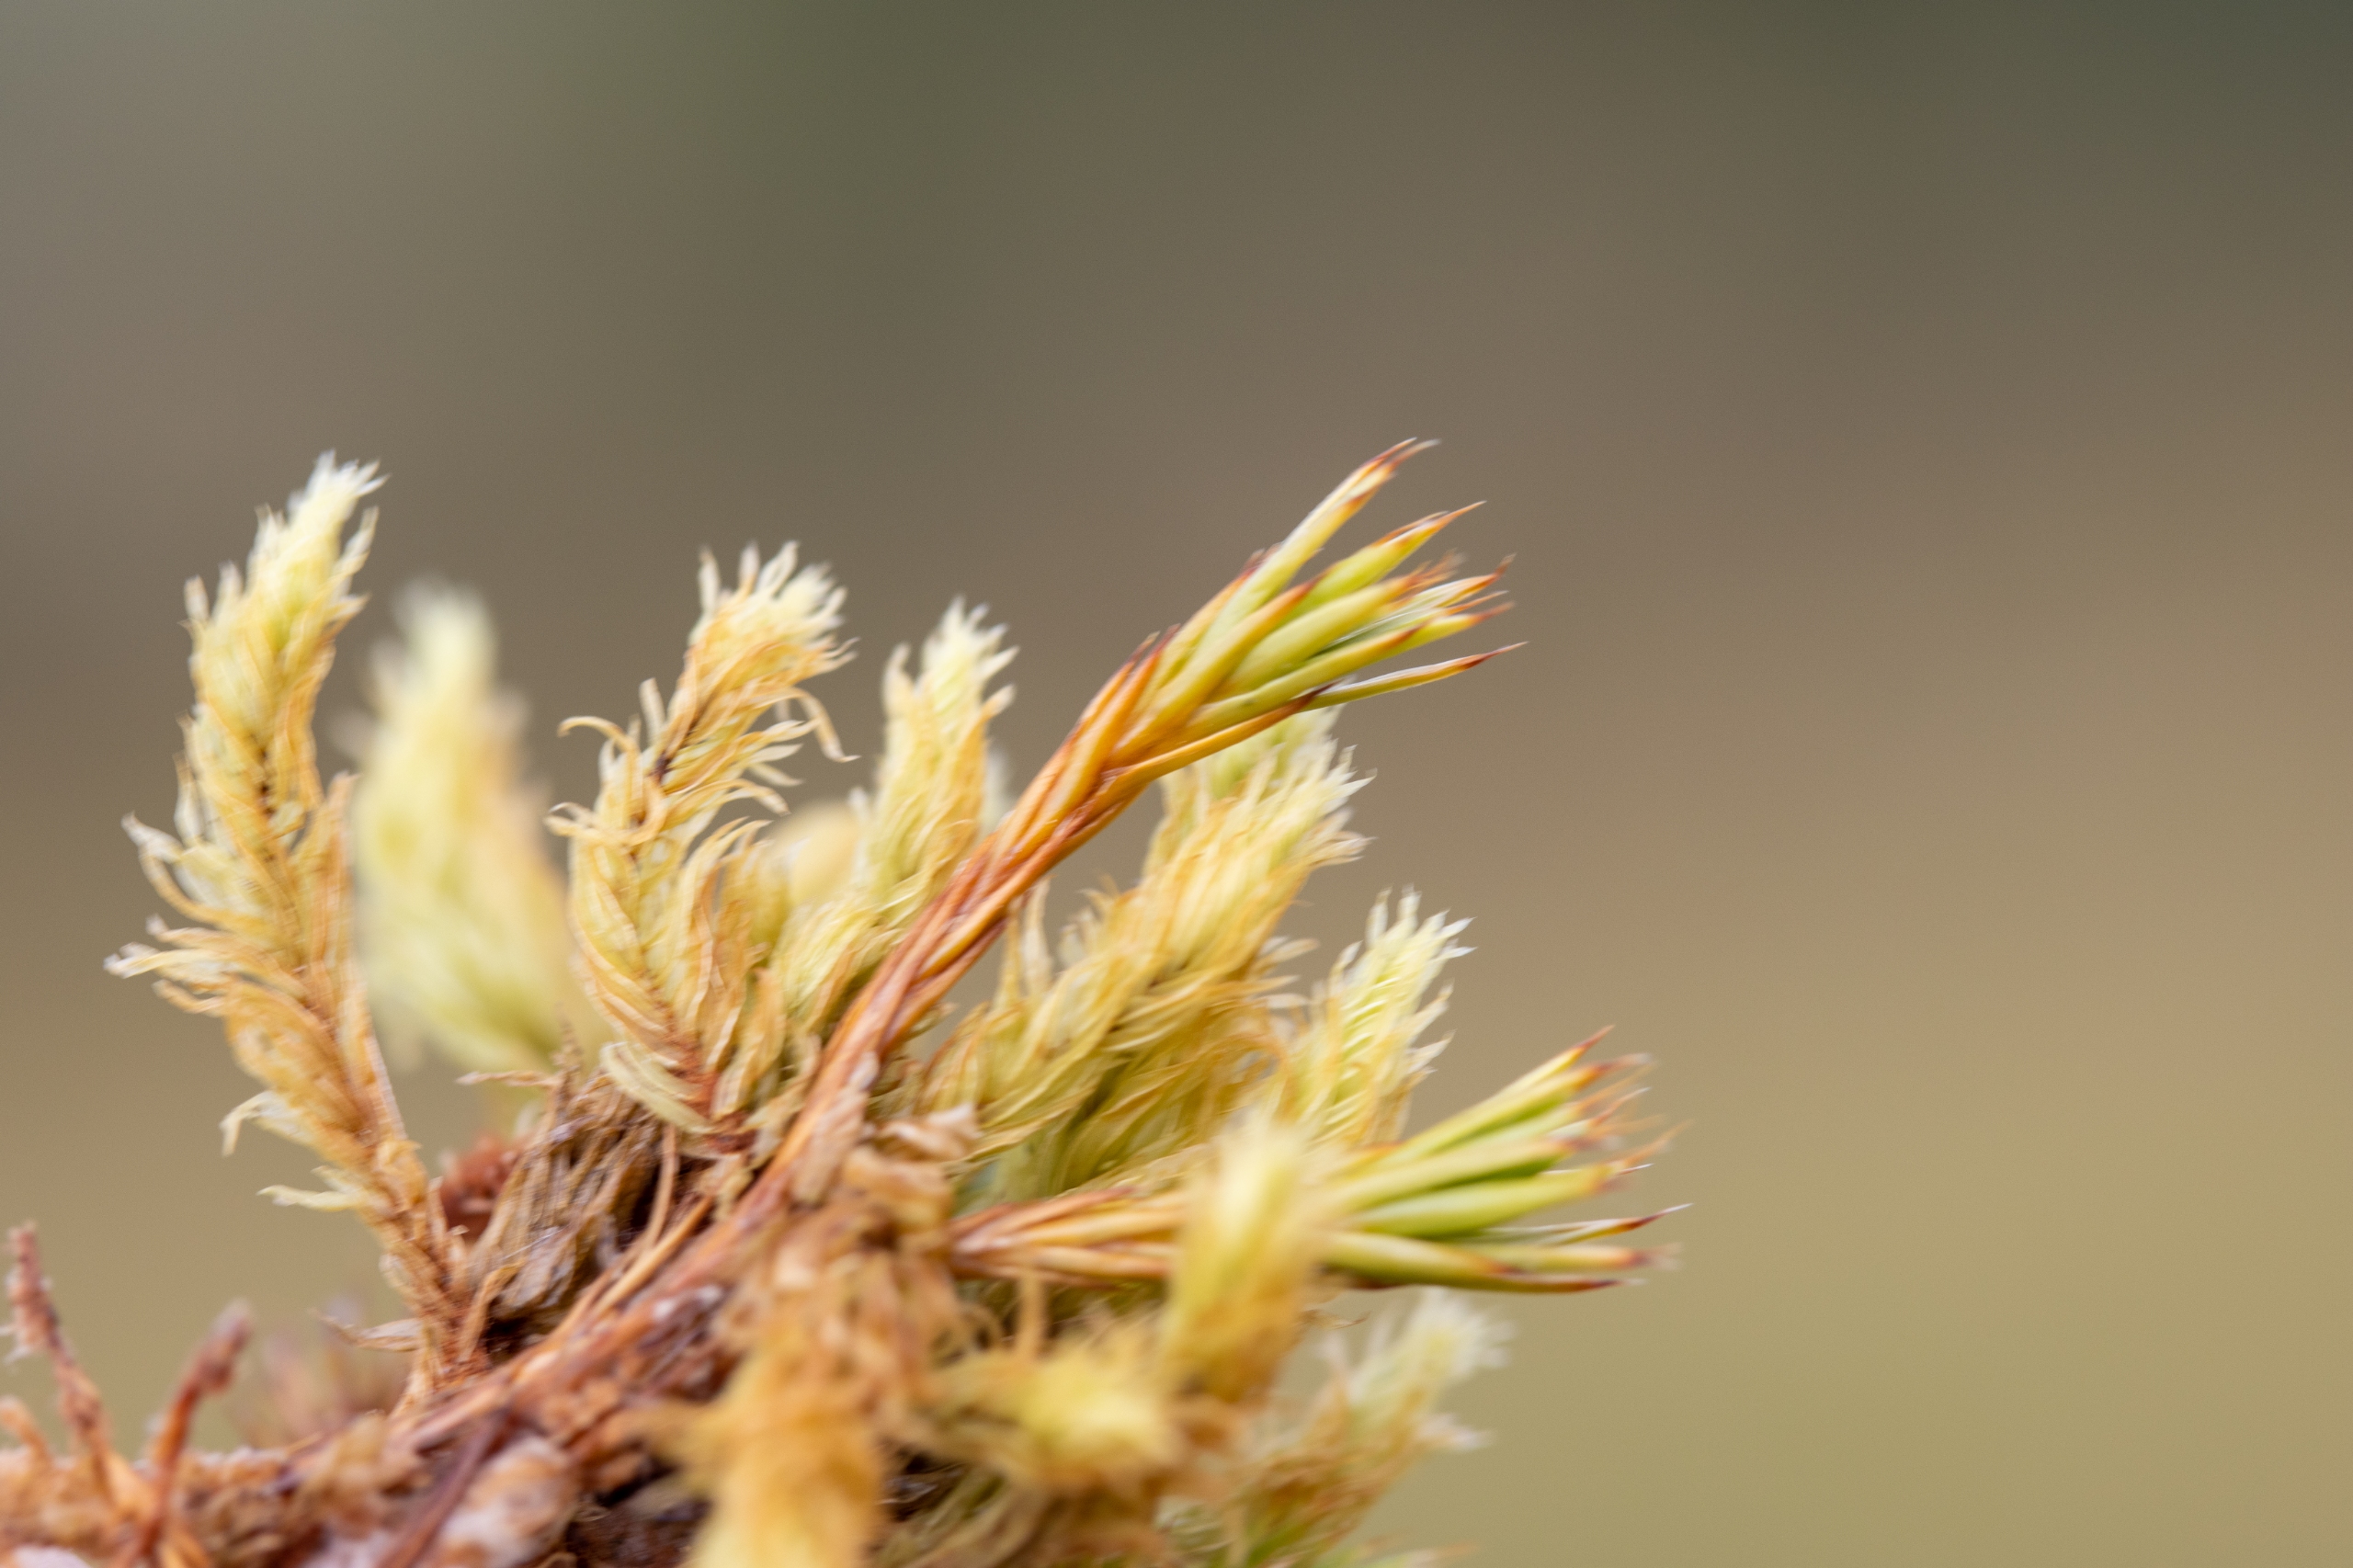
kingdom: Plantae
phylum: Bryophyta
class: Polytrichopsida
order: Polytrichales
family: Polytrichaceae
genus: Polytrichum
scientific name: Polytrichum strictum
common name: Filtstænglet jomfruhår
